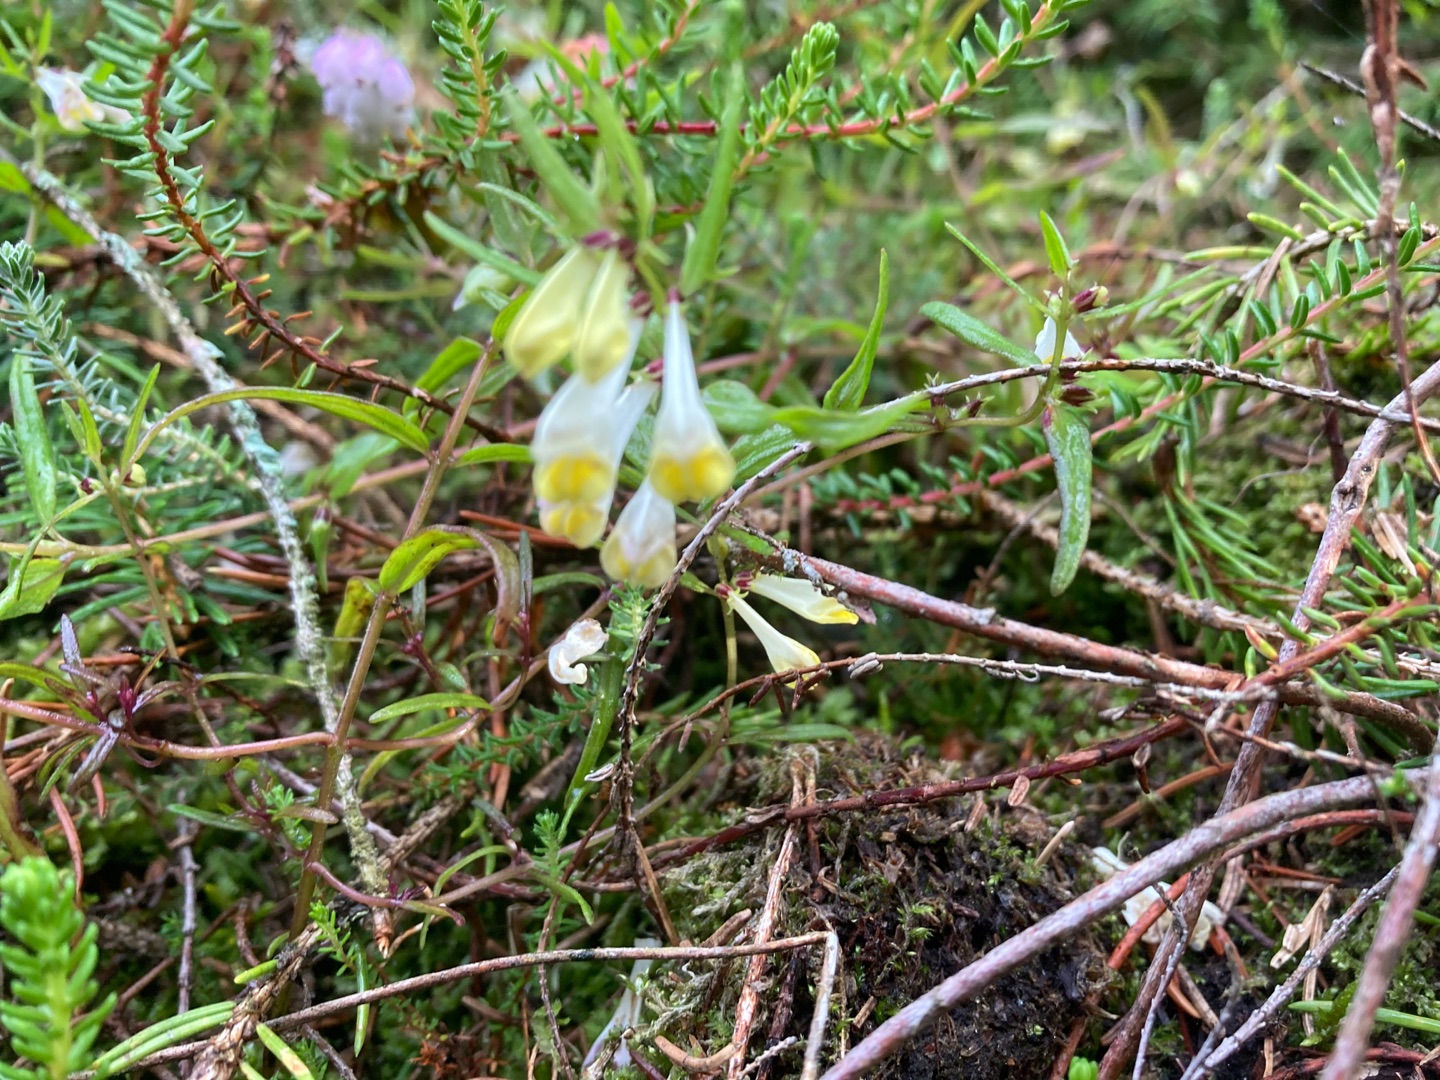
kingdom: Plantae
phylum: Tracheophyta
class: Magnoliopsida
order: Lamiales
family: Orobanchaceae
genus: Melampyrum
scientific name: Melampyrum pratense
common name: Almindelig kohvede
